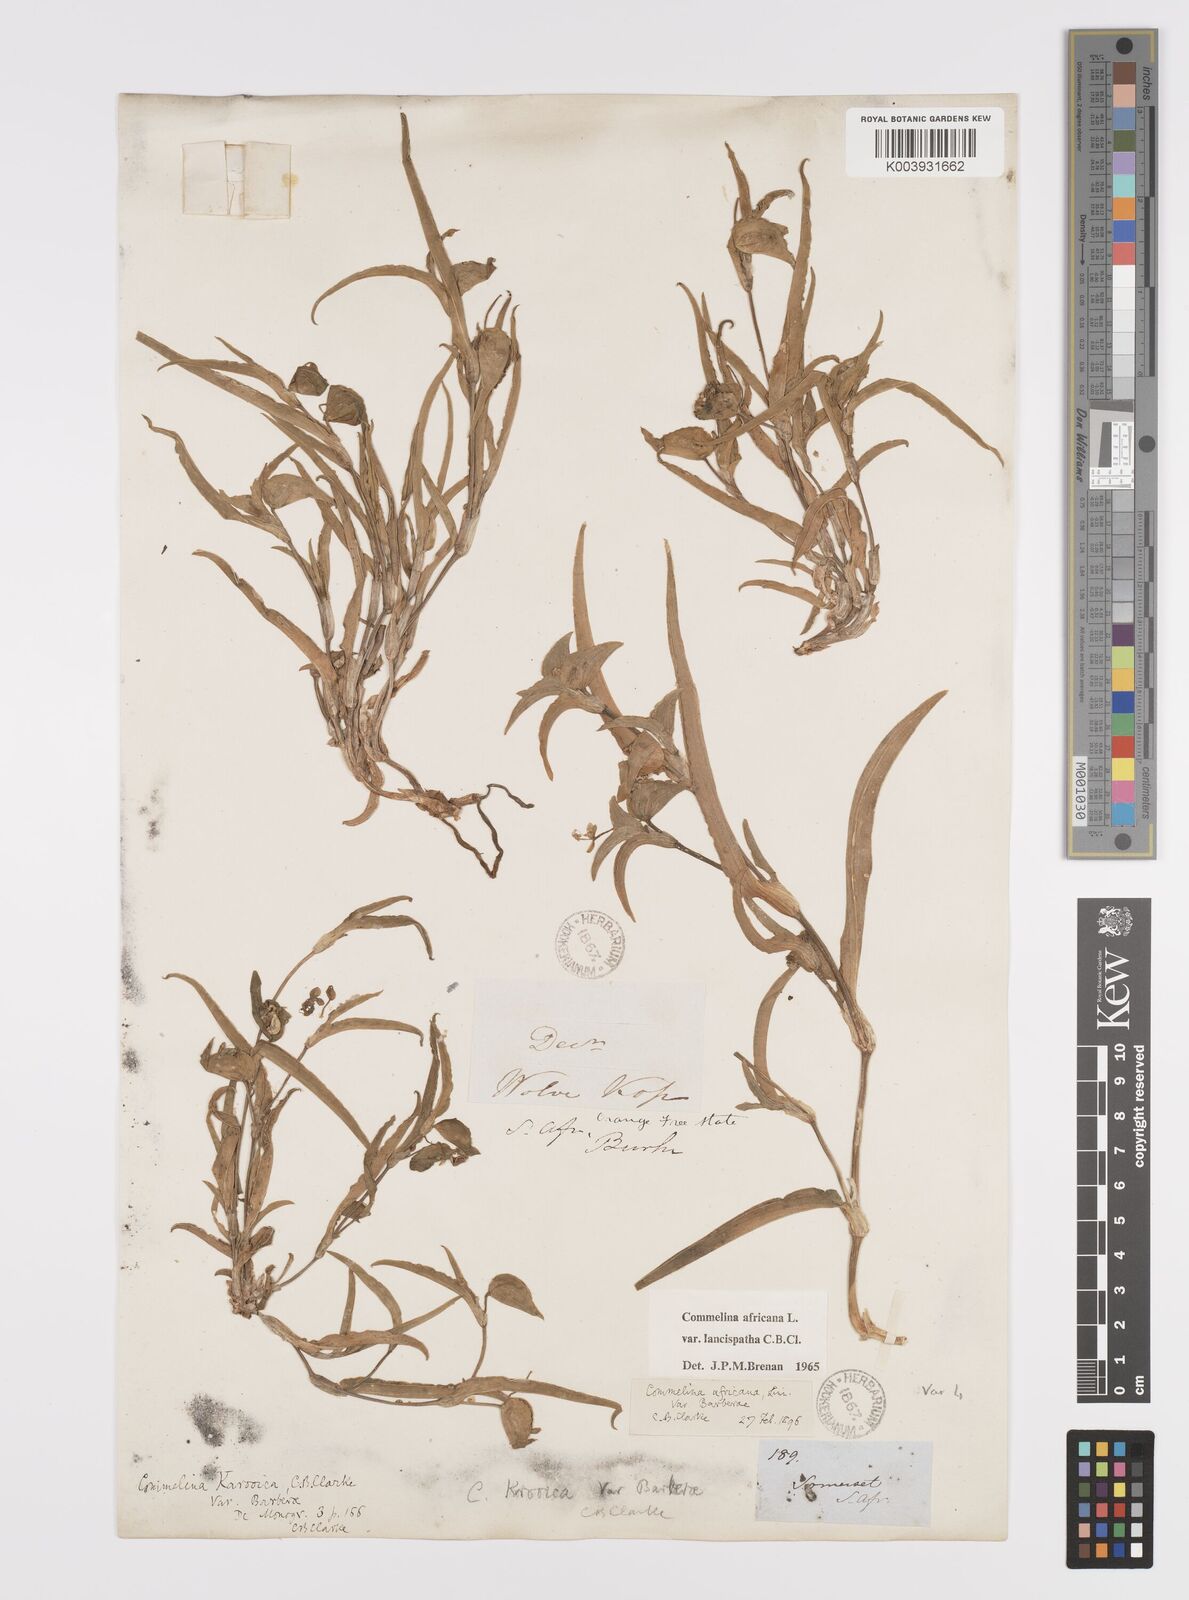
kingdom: Plantae
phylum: Tracheophyta
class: Liliopsida
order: Commelinales
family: Commelinaceae
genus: Commelina
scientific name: Commelina africana
